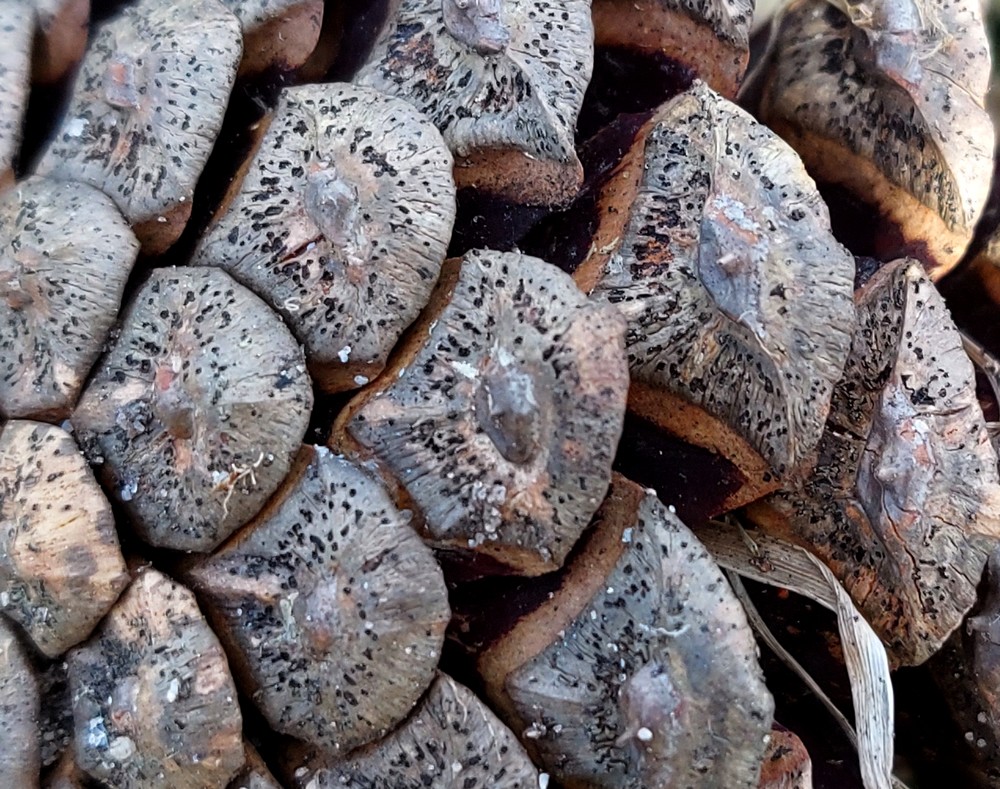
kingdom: Fungi
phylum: Ascomycota
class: Dothideomycetes
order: Botryosphaeriales
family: Botryosphaeriaceae
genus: Sphaeropsis
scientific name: Sphaeropsis sapinea
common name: Sphaeropsis blight
